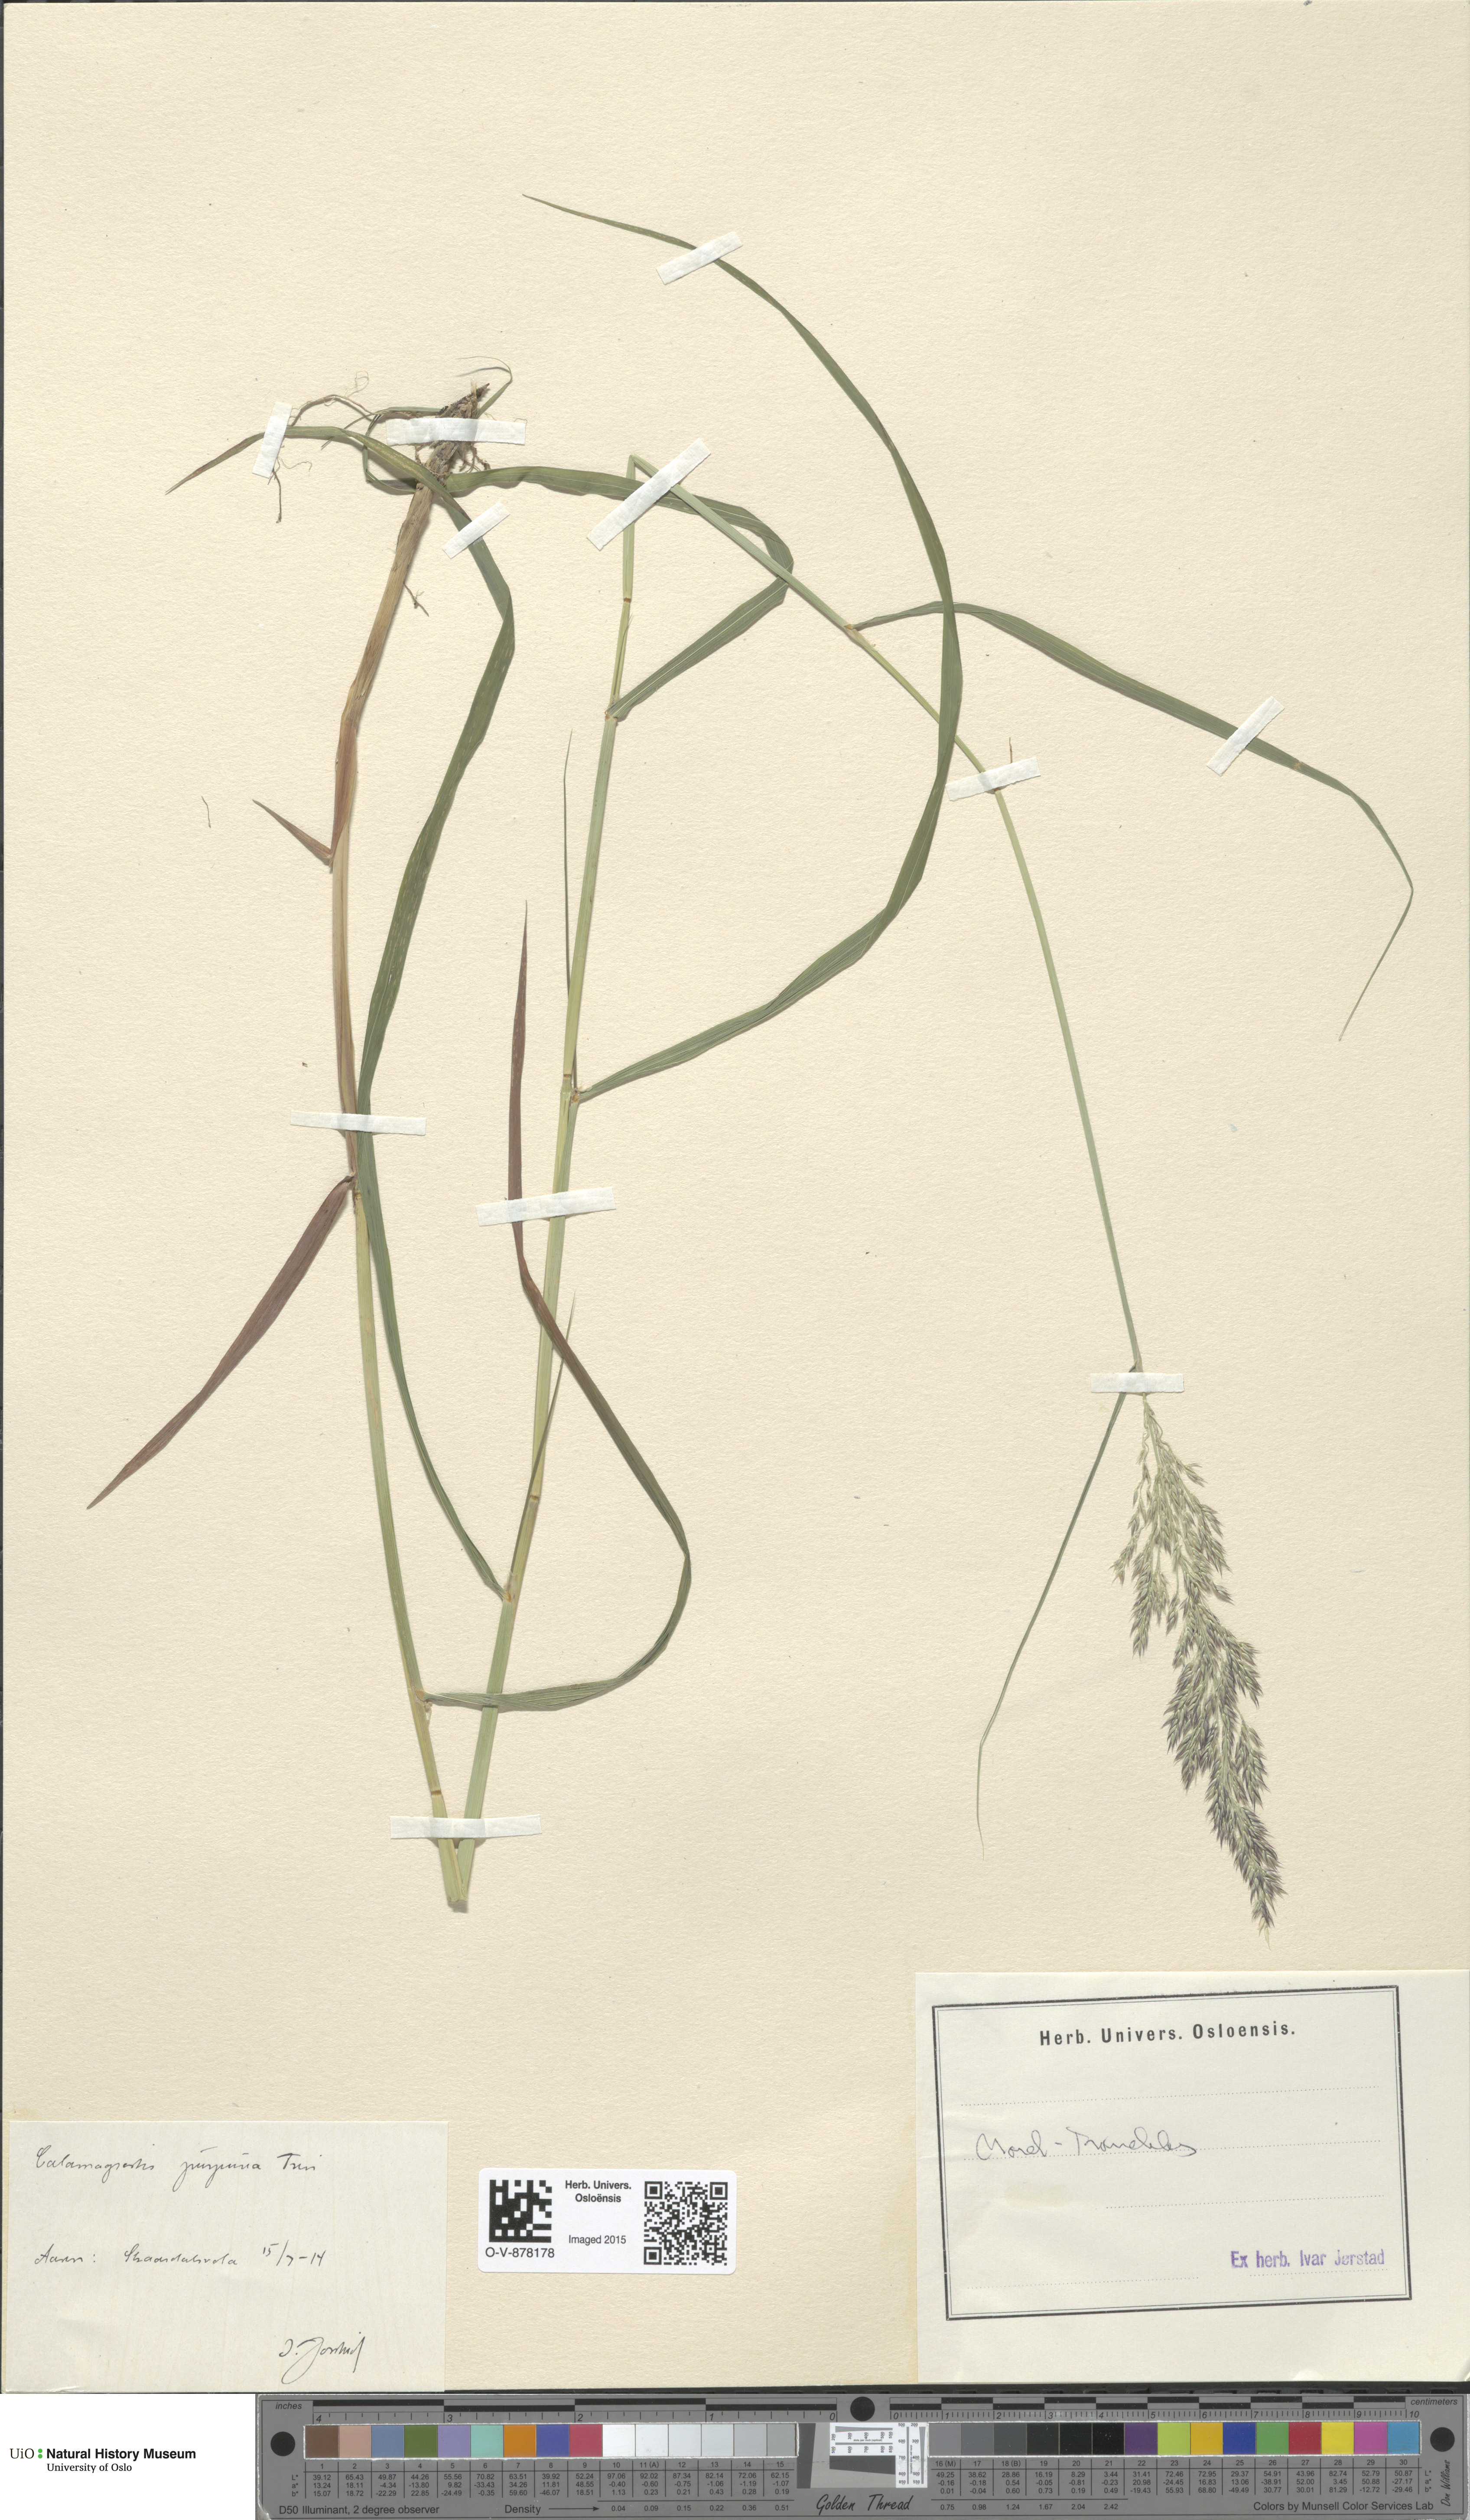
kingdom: Plantae
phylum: Tracheophyta
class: Liliopsida
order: Poales
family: Poaceae
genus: Calamagrostis
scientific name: Calamagrostis purpurea
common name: Scandinavian small-reed
